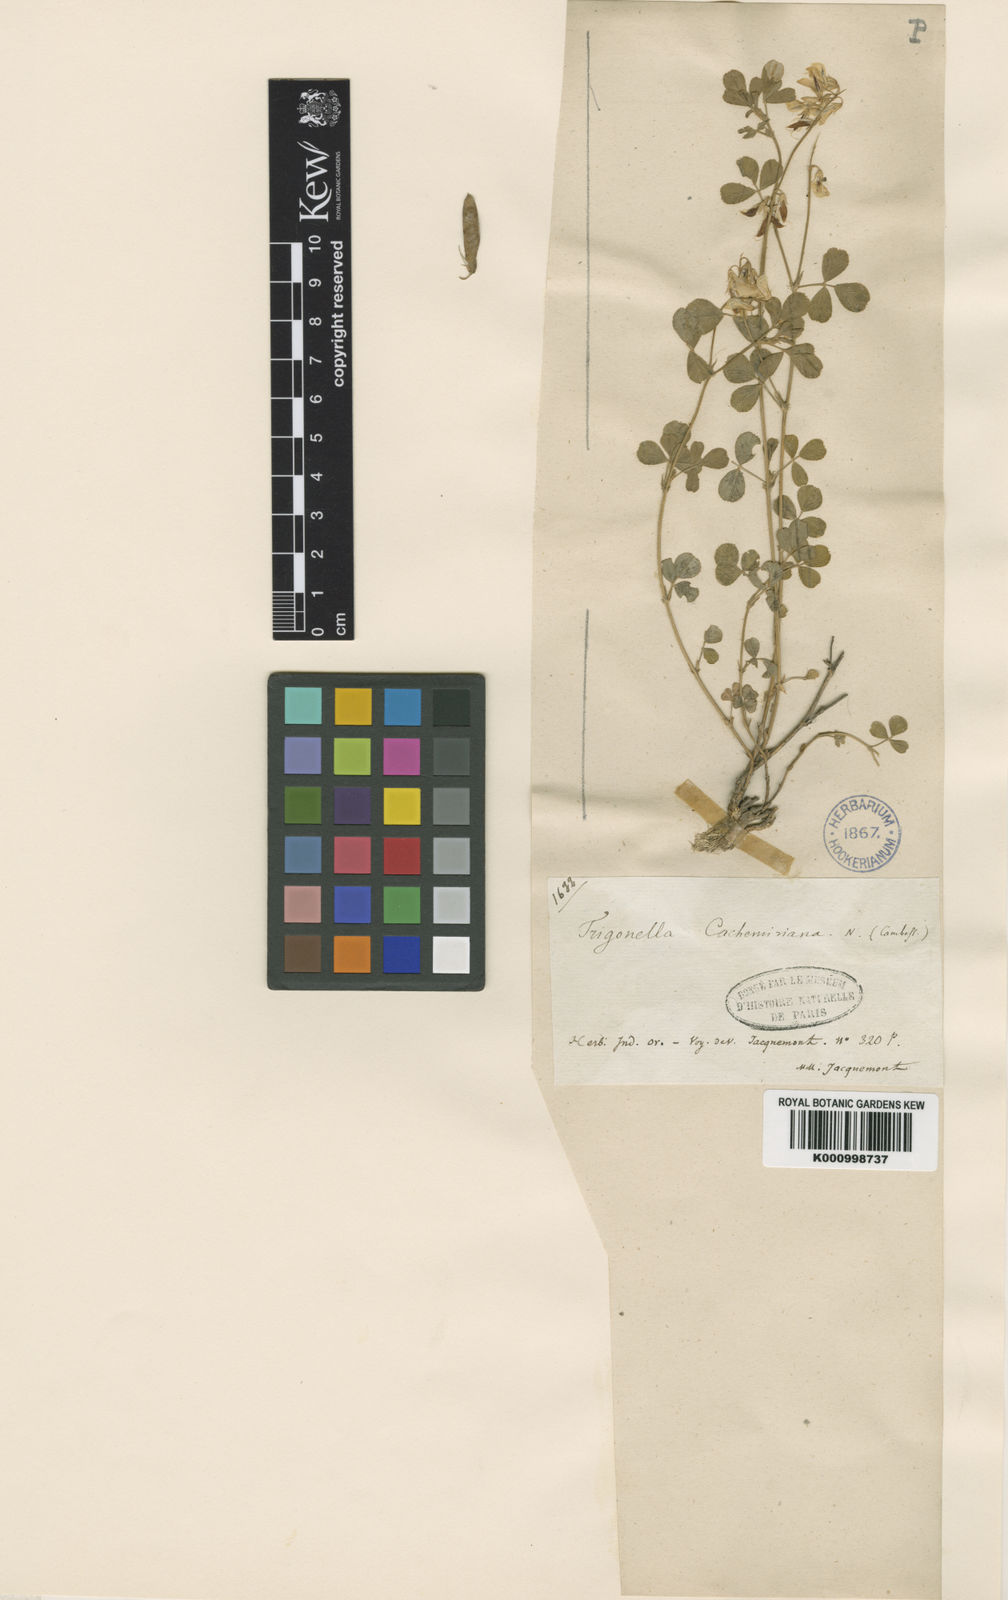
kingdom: Plantae
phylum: Tracheophyta
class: Magnoliopsida
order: Fabales
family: Fabaceae
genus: Trigonella
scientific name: Trigonella cachemiriana
